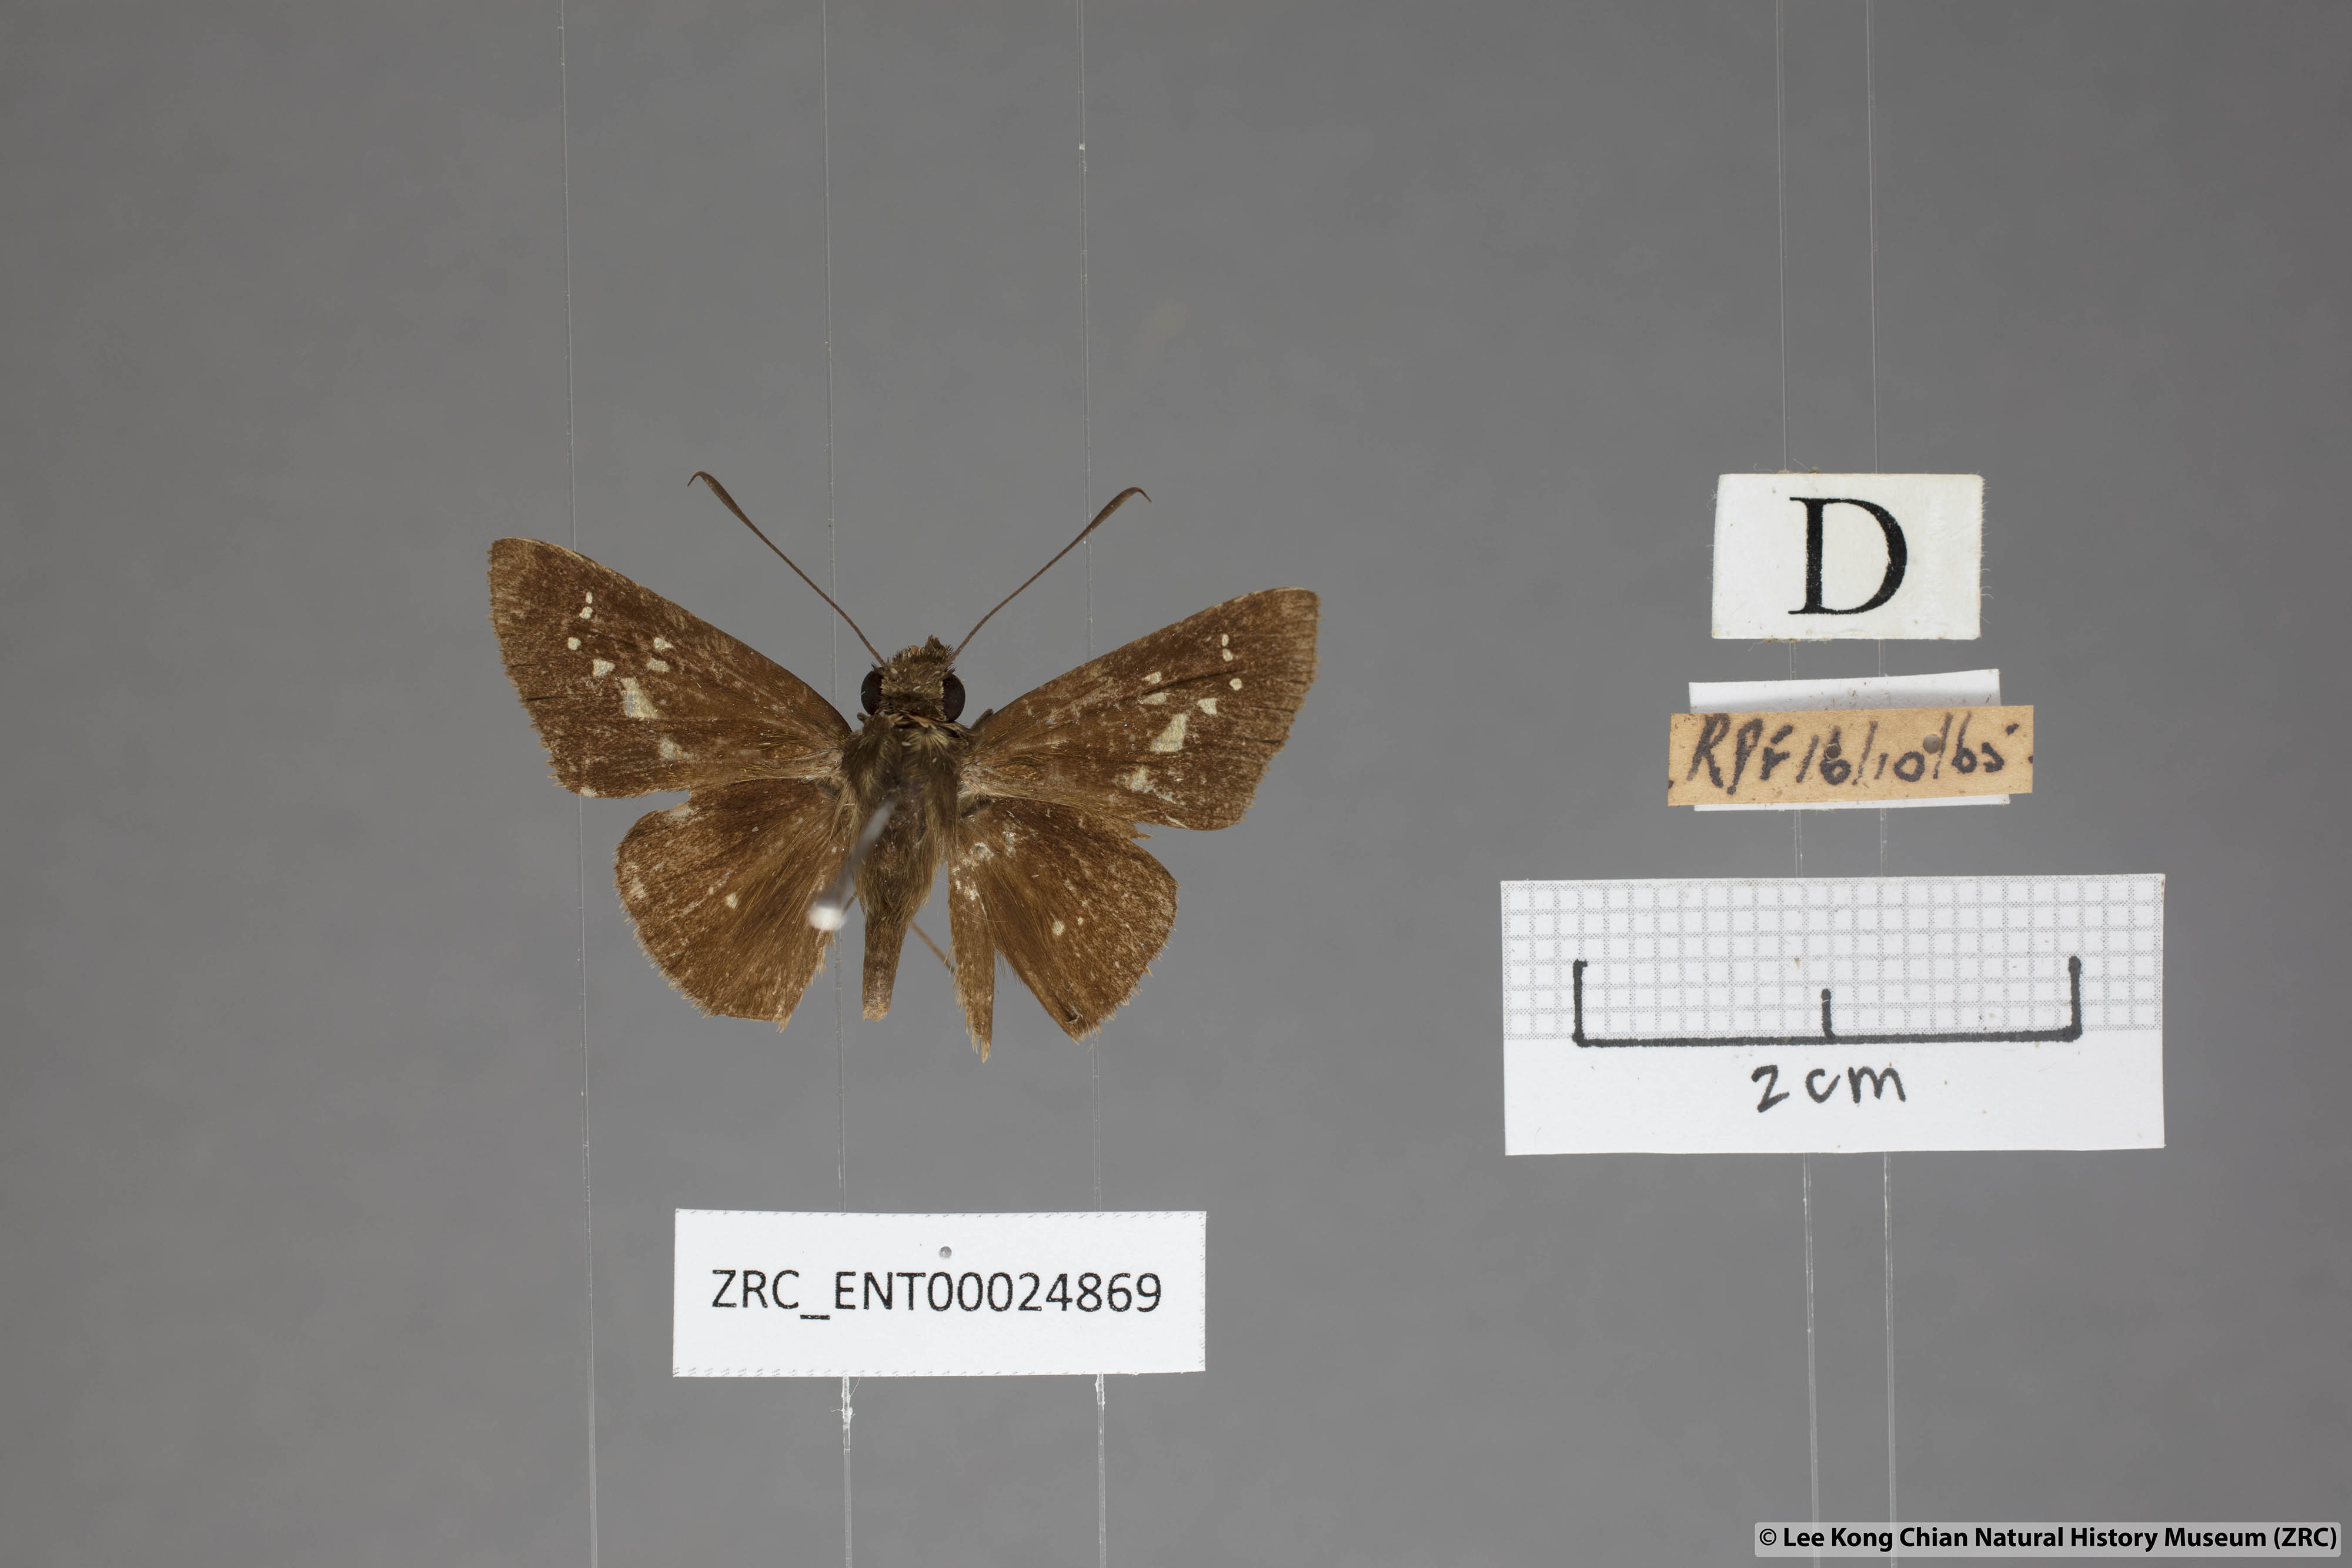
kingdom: Animalia
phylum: Arthropoda
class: Insecta
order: Lepidoptera
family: Hesperiidae
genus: Isma
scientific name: Isma miosticta
